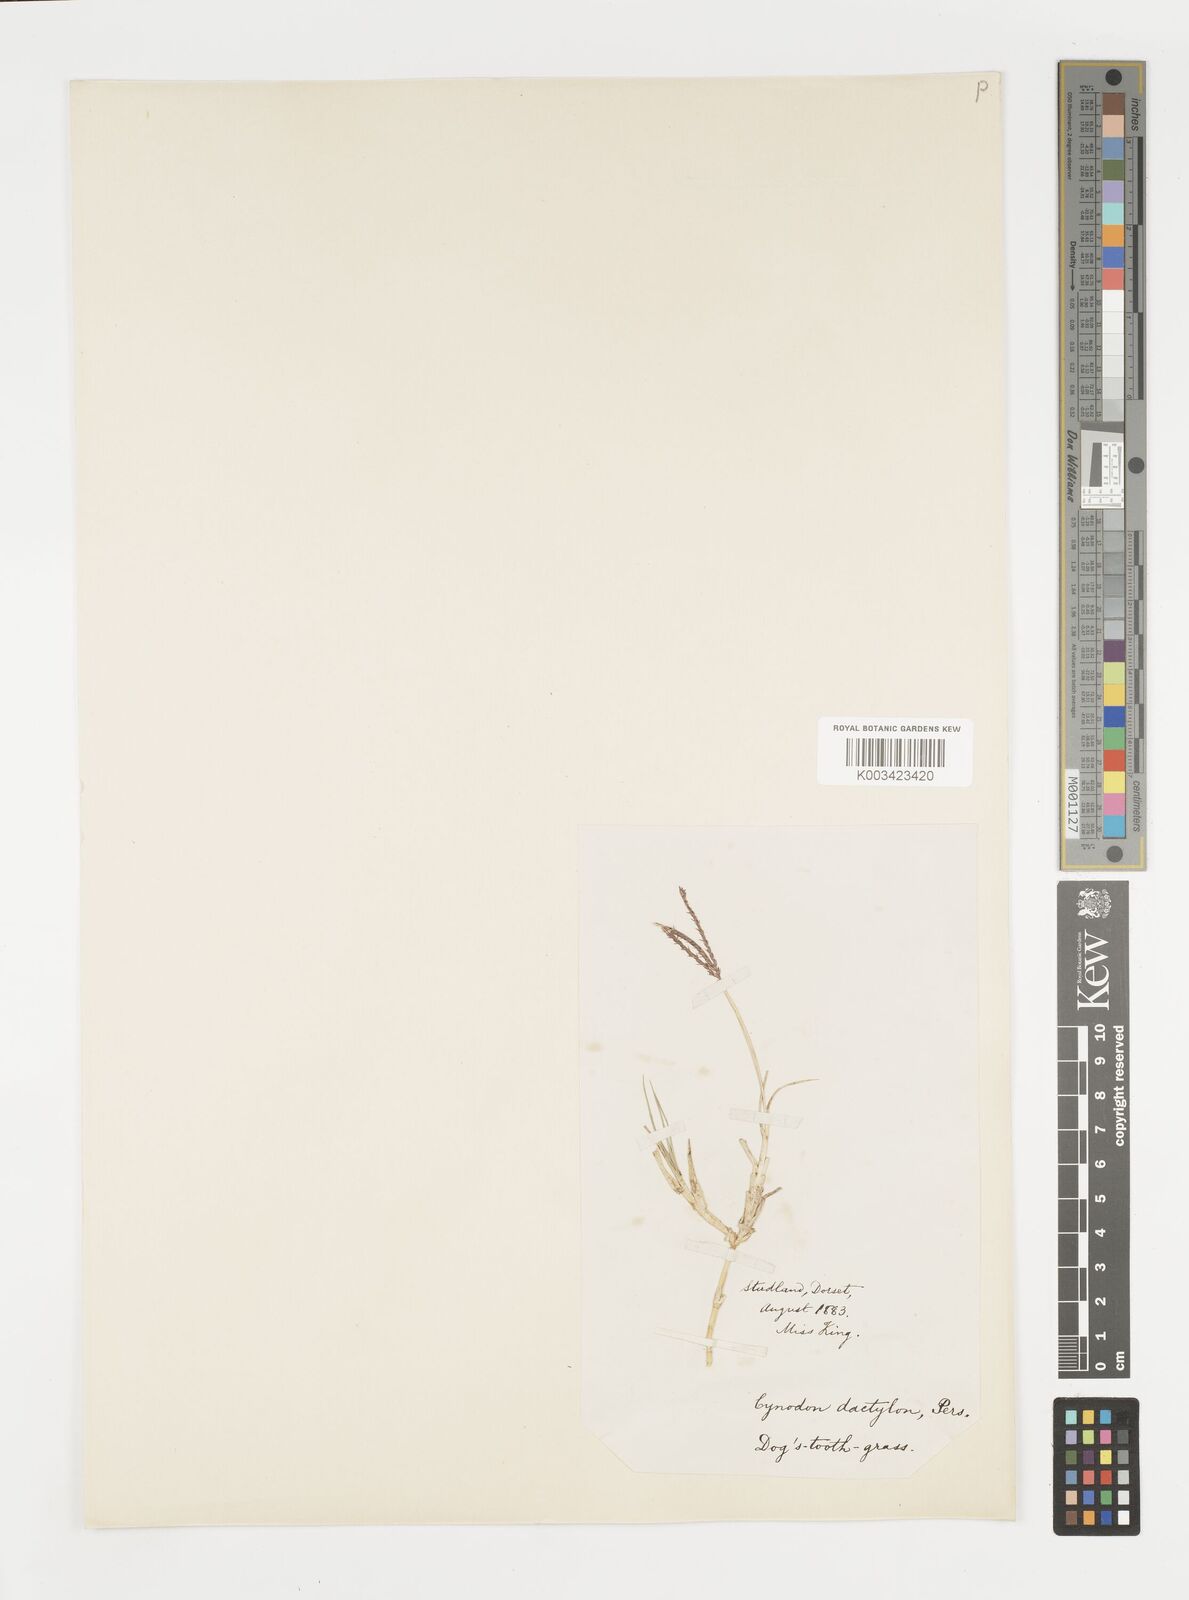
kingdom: Plantae
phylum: Tracheophyta
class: Liliopsida
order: Poales
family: Poaceae
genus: Cynodon
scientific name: Cynodon dactylon
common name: Bermuda grass
